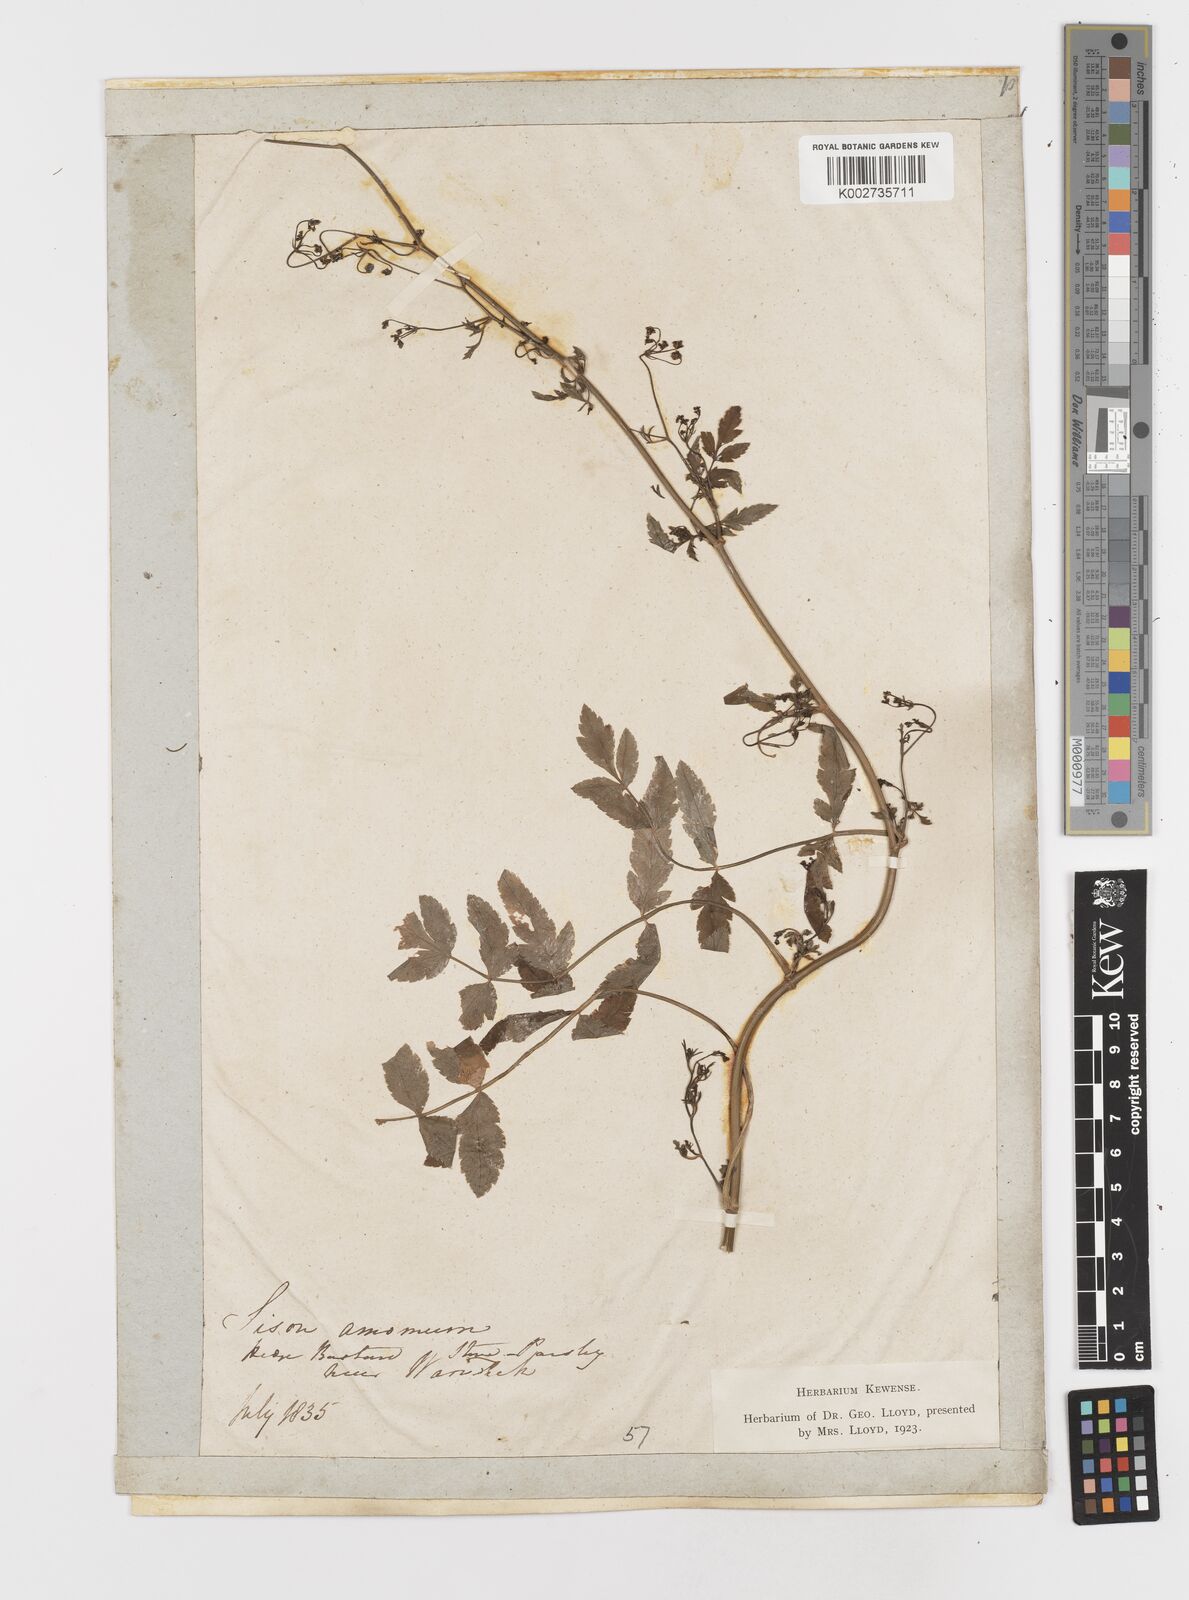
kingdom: Plantae
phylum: Tracheophyta
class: Magnoliopsida
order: Apiales
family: Apiaceae
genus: Sison
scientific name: Sison amomum
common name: Stone-parsley
